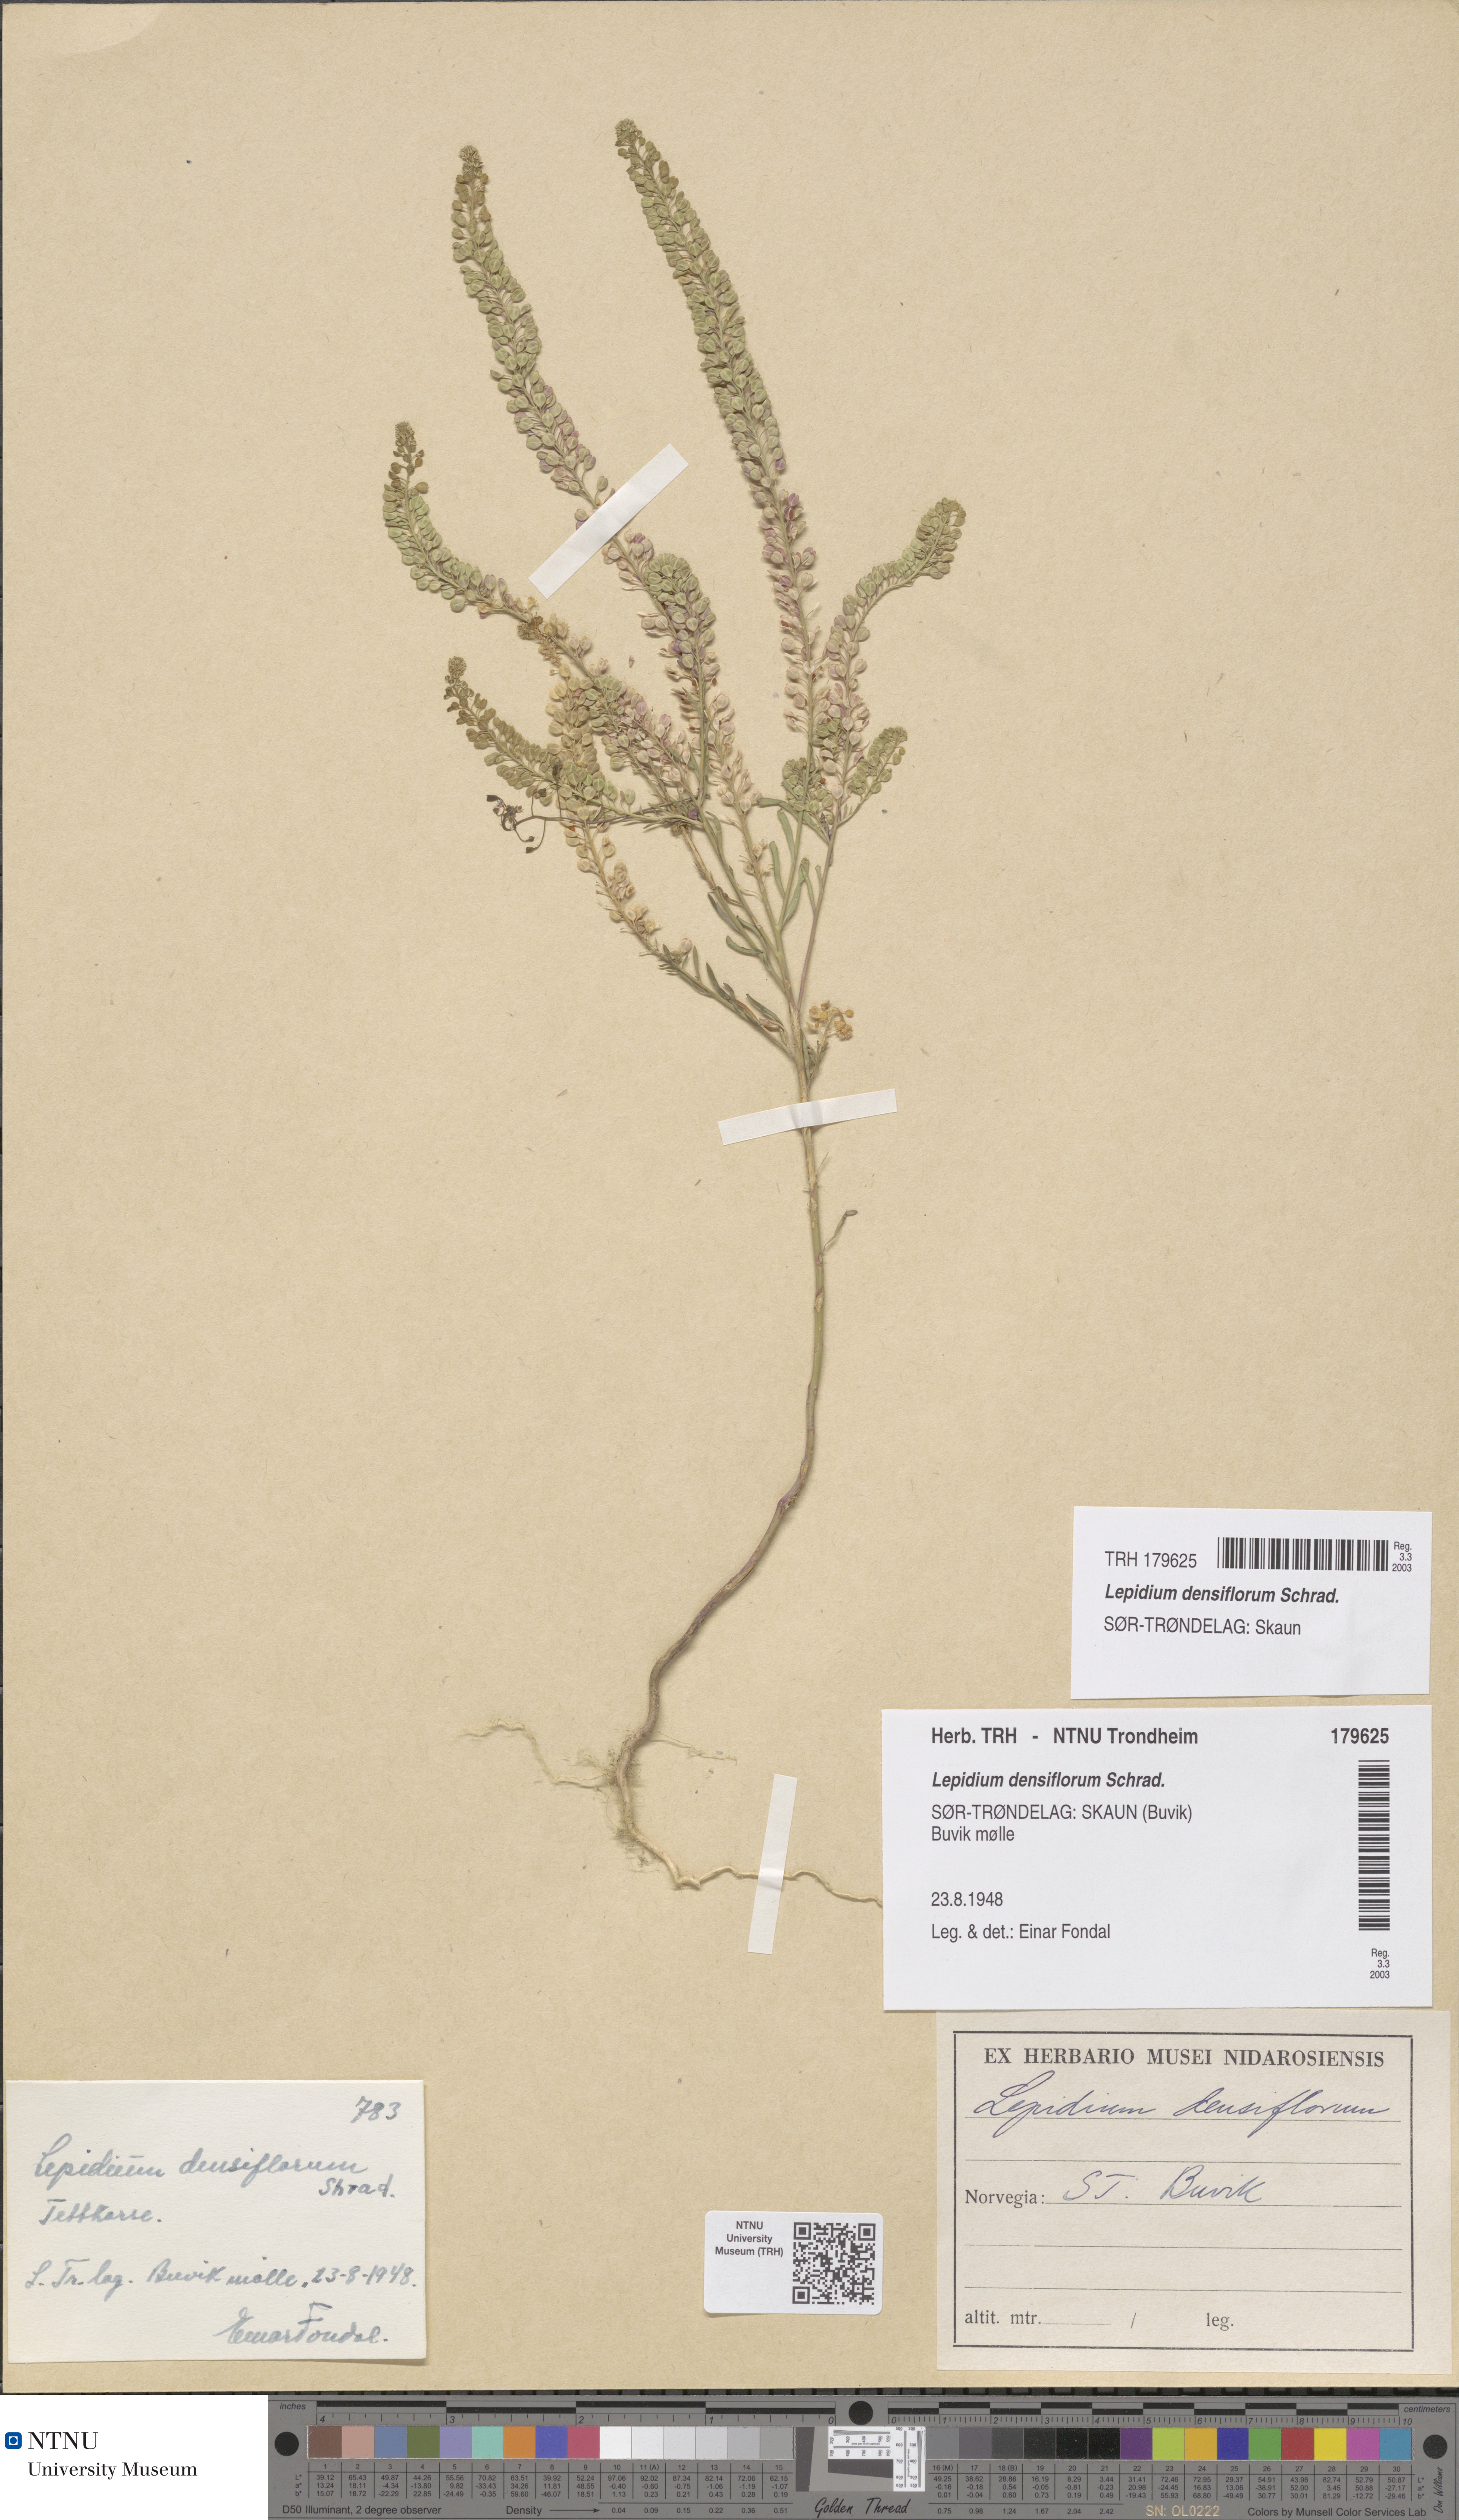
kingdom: Plantae
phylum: Tracheophyta
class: Magnoliopsida
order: Brassicales
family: Brassicaceae
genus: Lepidium
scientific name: Lepidium densiflorum
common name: Miner's pepperwort
